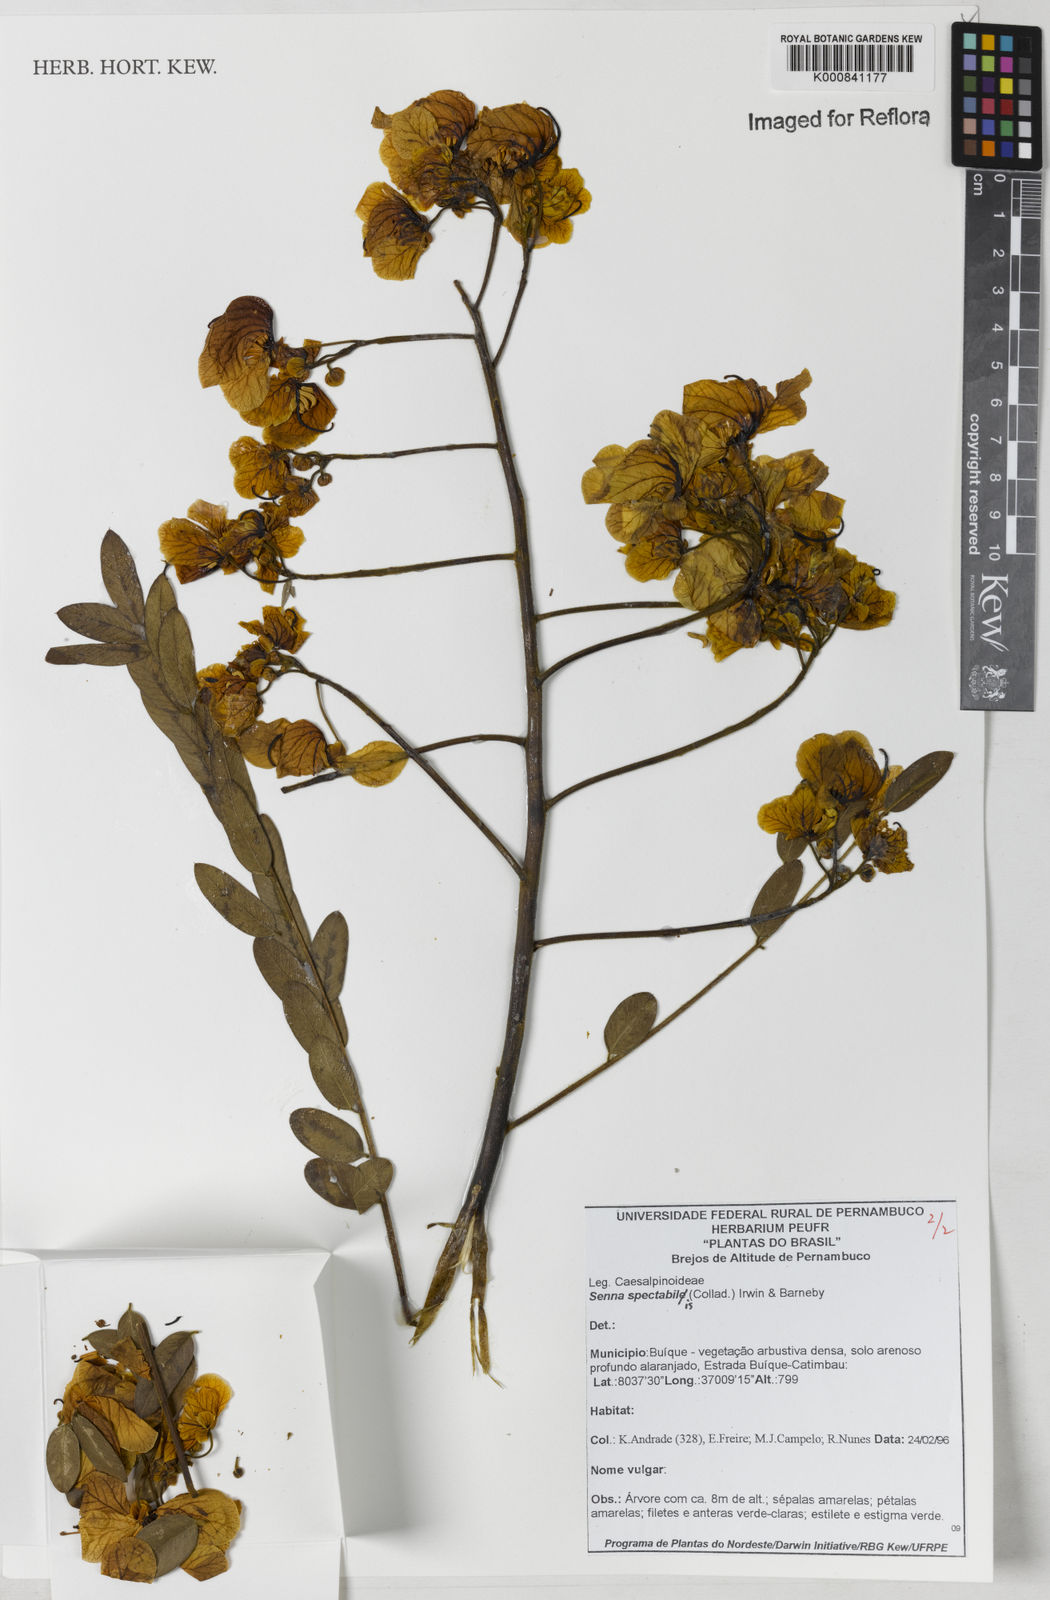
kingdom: Plantae
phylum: Tracheophyta
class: Magnoliopsida
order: Fabales
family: Fabaceae
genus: Senna
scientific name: Senna spectabilis
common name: Casia amarilla
